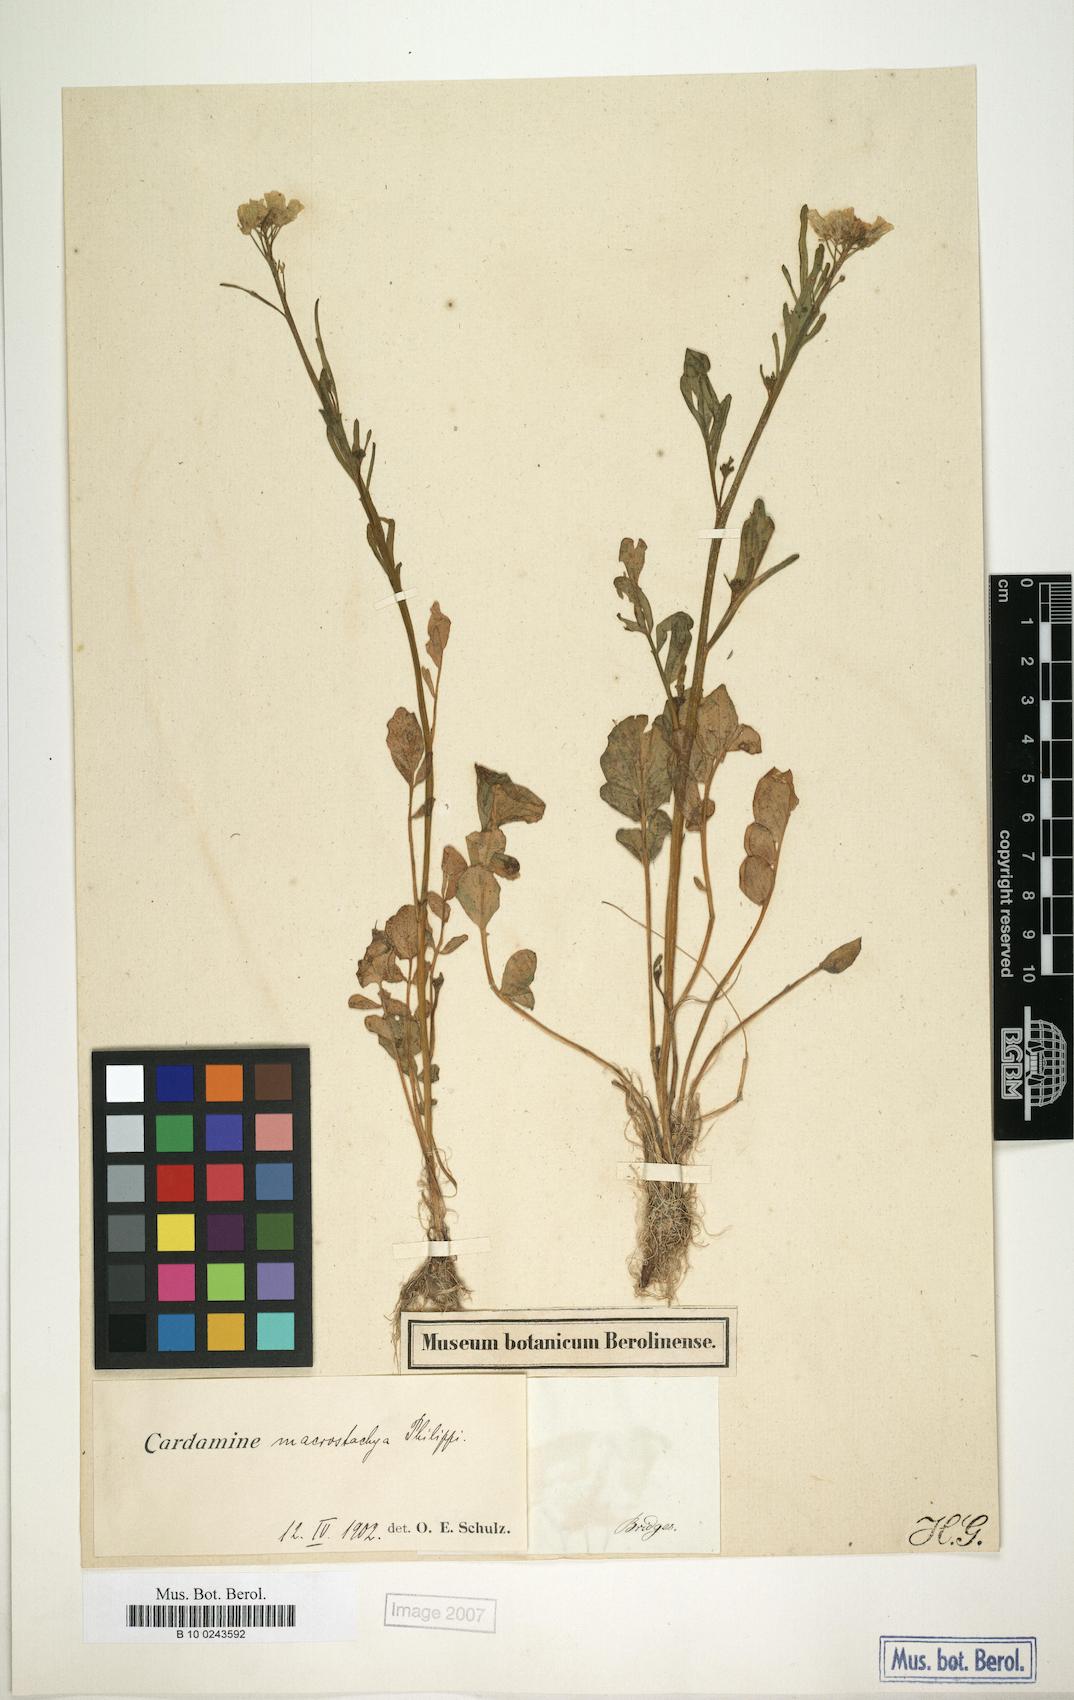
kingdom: Plantae
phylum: Tracheophyta
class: Magnoliopsida
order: Brassicales
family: Brassicaceae
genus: Cardamine
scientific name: Cardamine macrostachya
